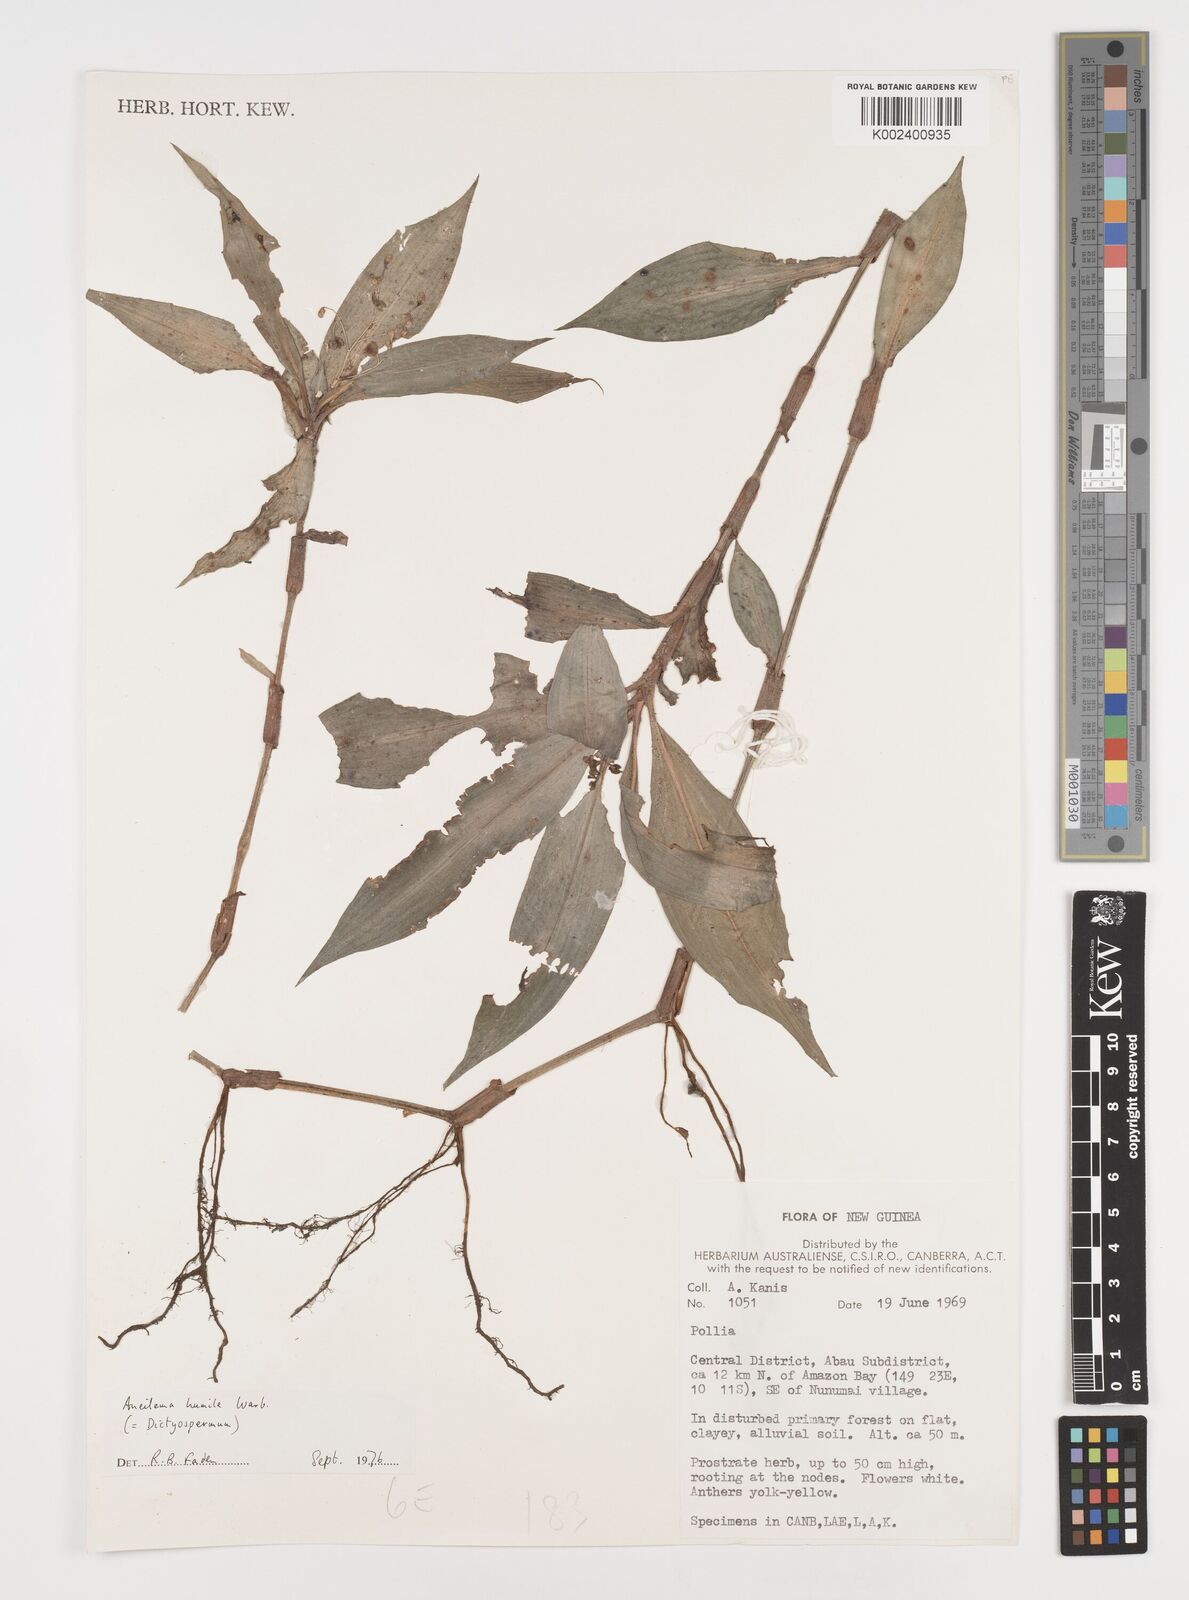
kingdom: Plantae
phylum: Tracheophyta
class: Liliopsida
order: Commelinales
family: Commelinaceae
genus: Dictyospermum
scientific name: Dictyospermum humile
